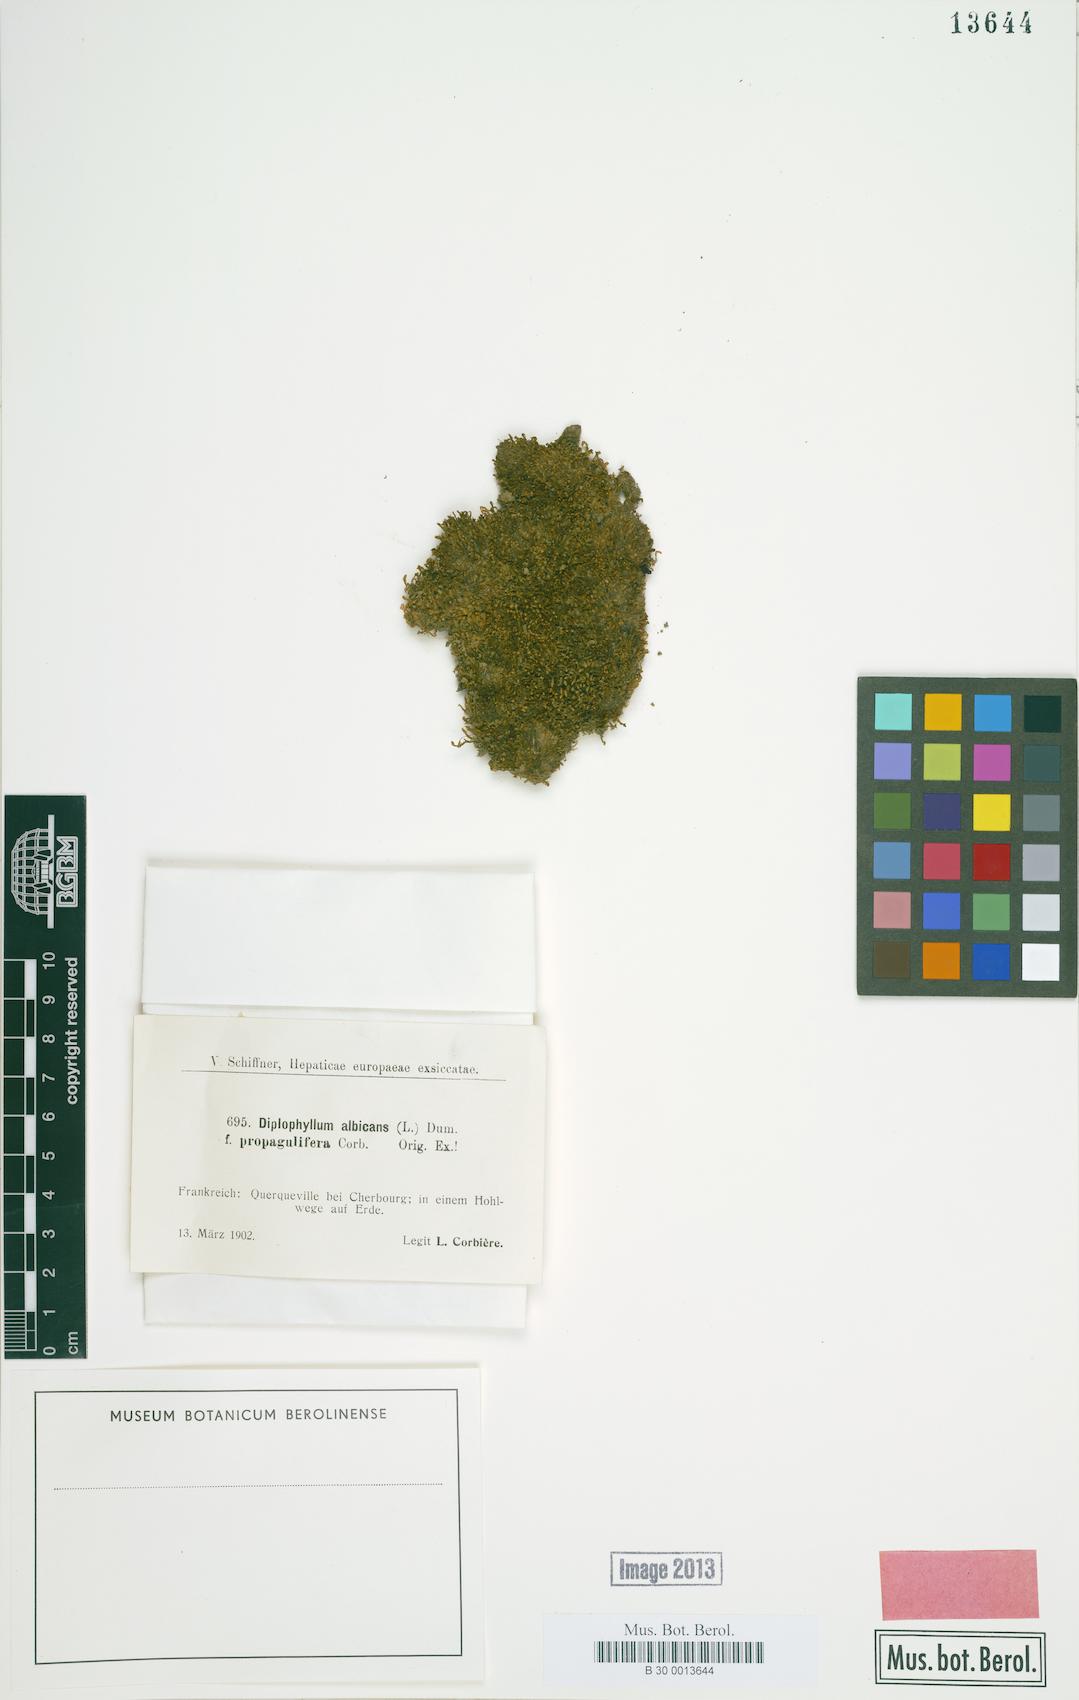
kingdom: Plantae
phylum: Marchantiophyta
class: Jungermanniopsida
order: Jungermanniales
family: Scapaniaceae
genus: Diplophyllum
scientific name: Diplophyllum albicans
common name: White earwort
